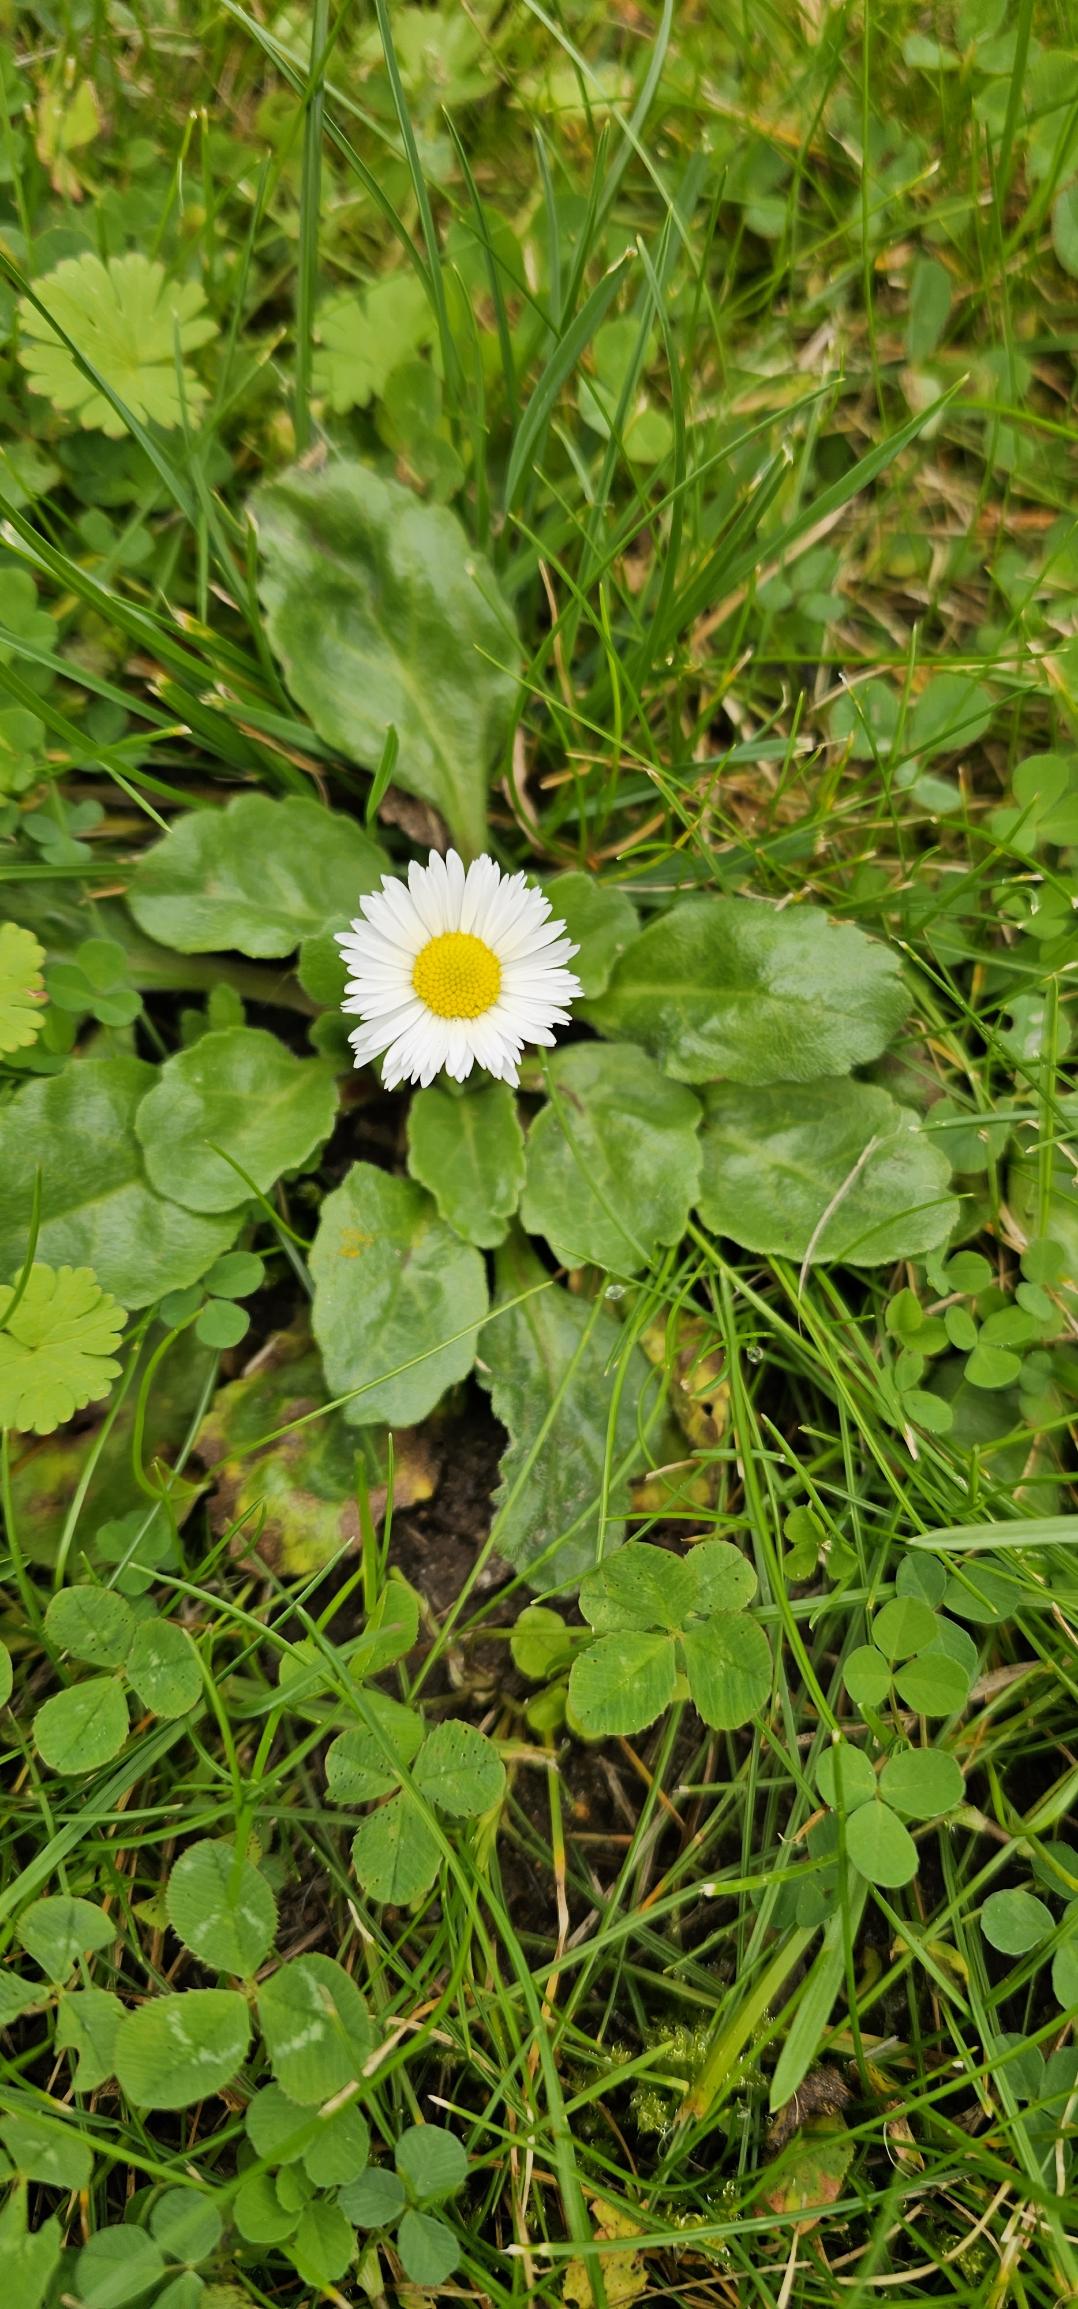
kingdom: Plantae
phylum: Tracheophyta
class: Magnoliopsida
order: Asterales
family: Asteraceae
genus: Bellis
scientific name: Bellis perennis
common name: Tusindfryd
